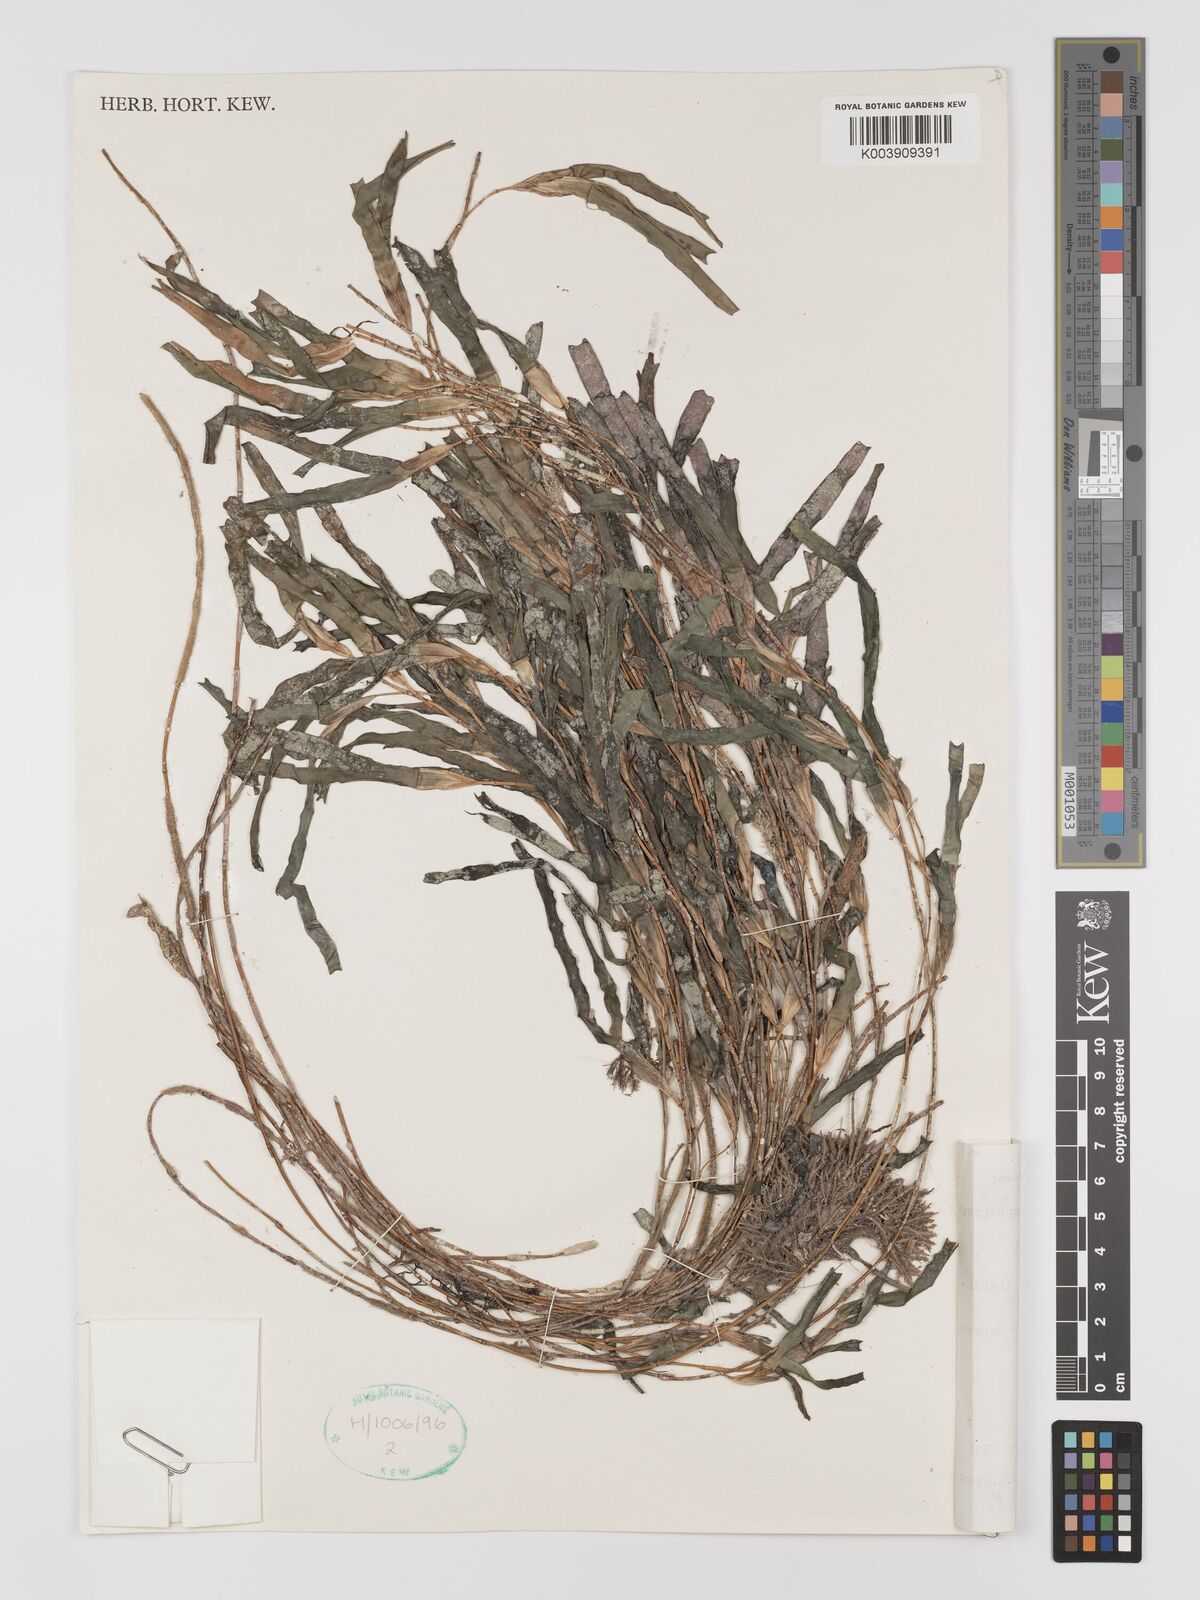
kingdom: Plantae
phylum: Tracheophyta
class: Liliopsida
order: Alismatales
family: Cymodoceaceae
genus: Amphibolis
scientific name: Amphibolis antarctica
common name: Species code: aa
